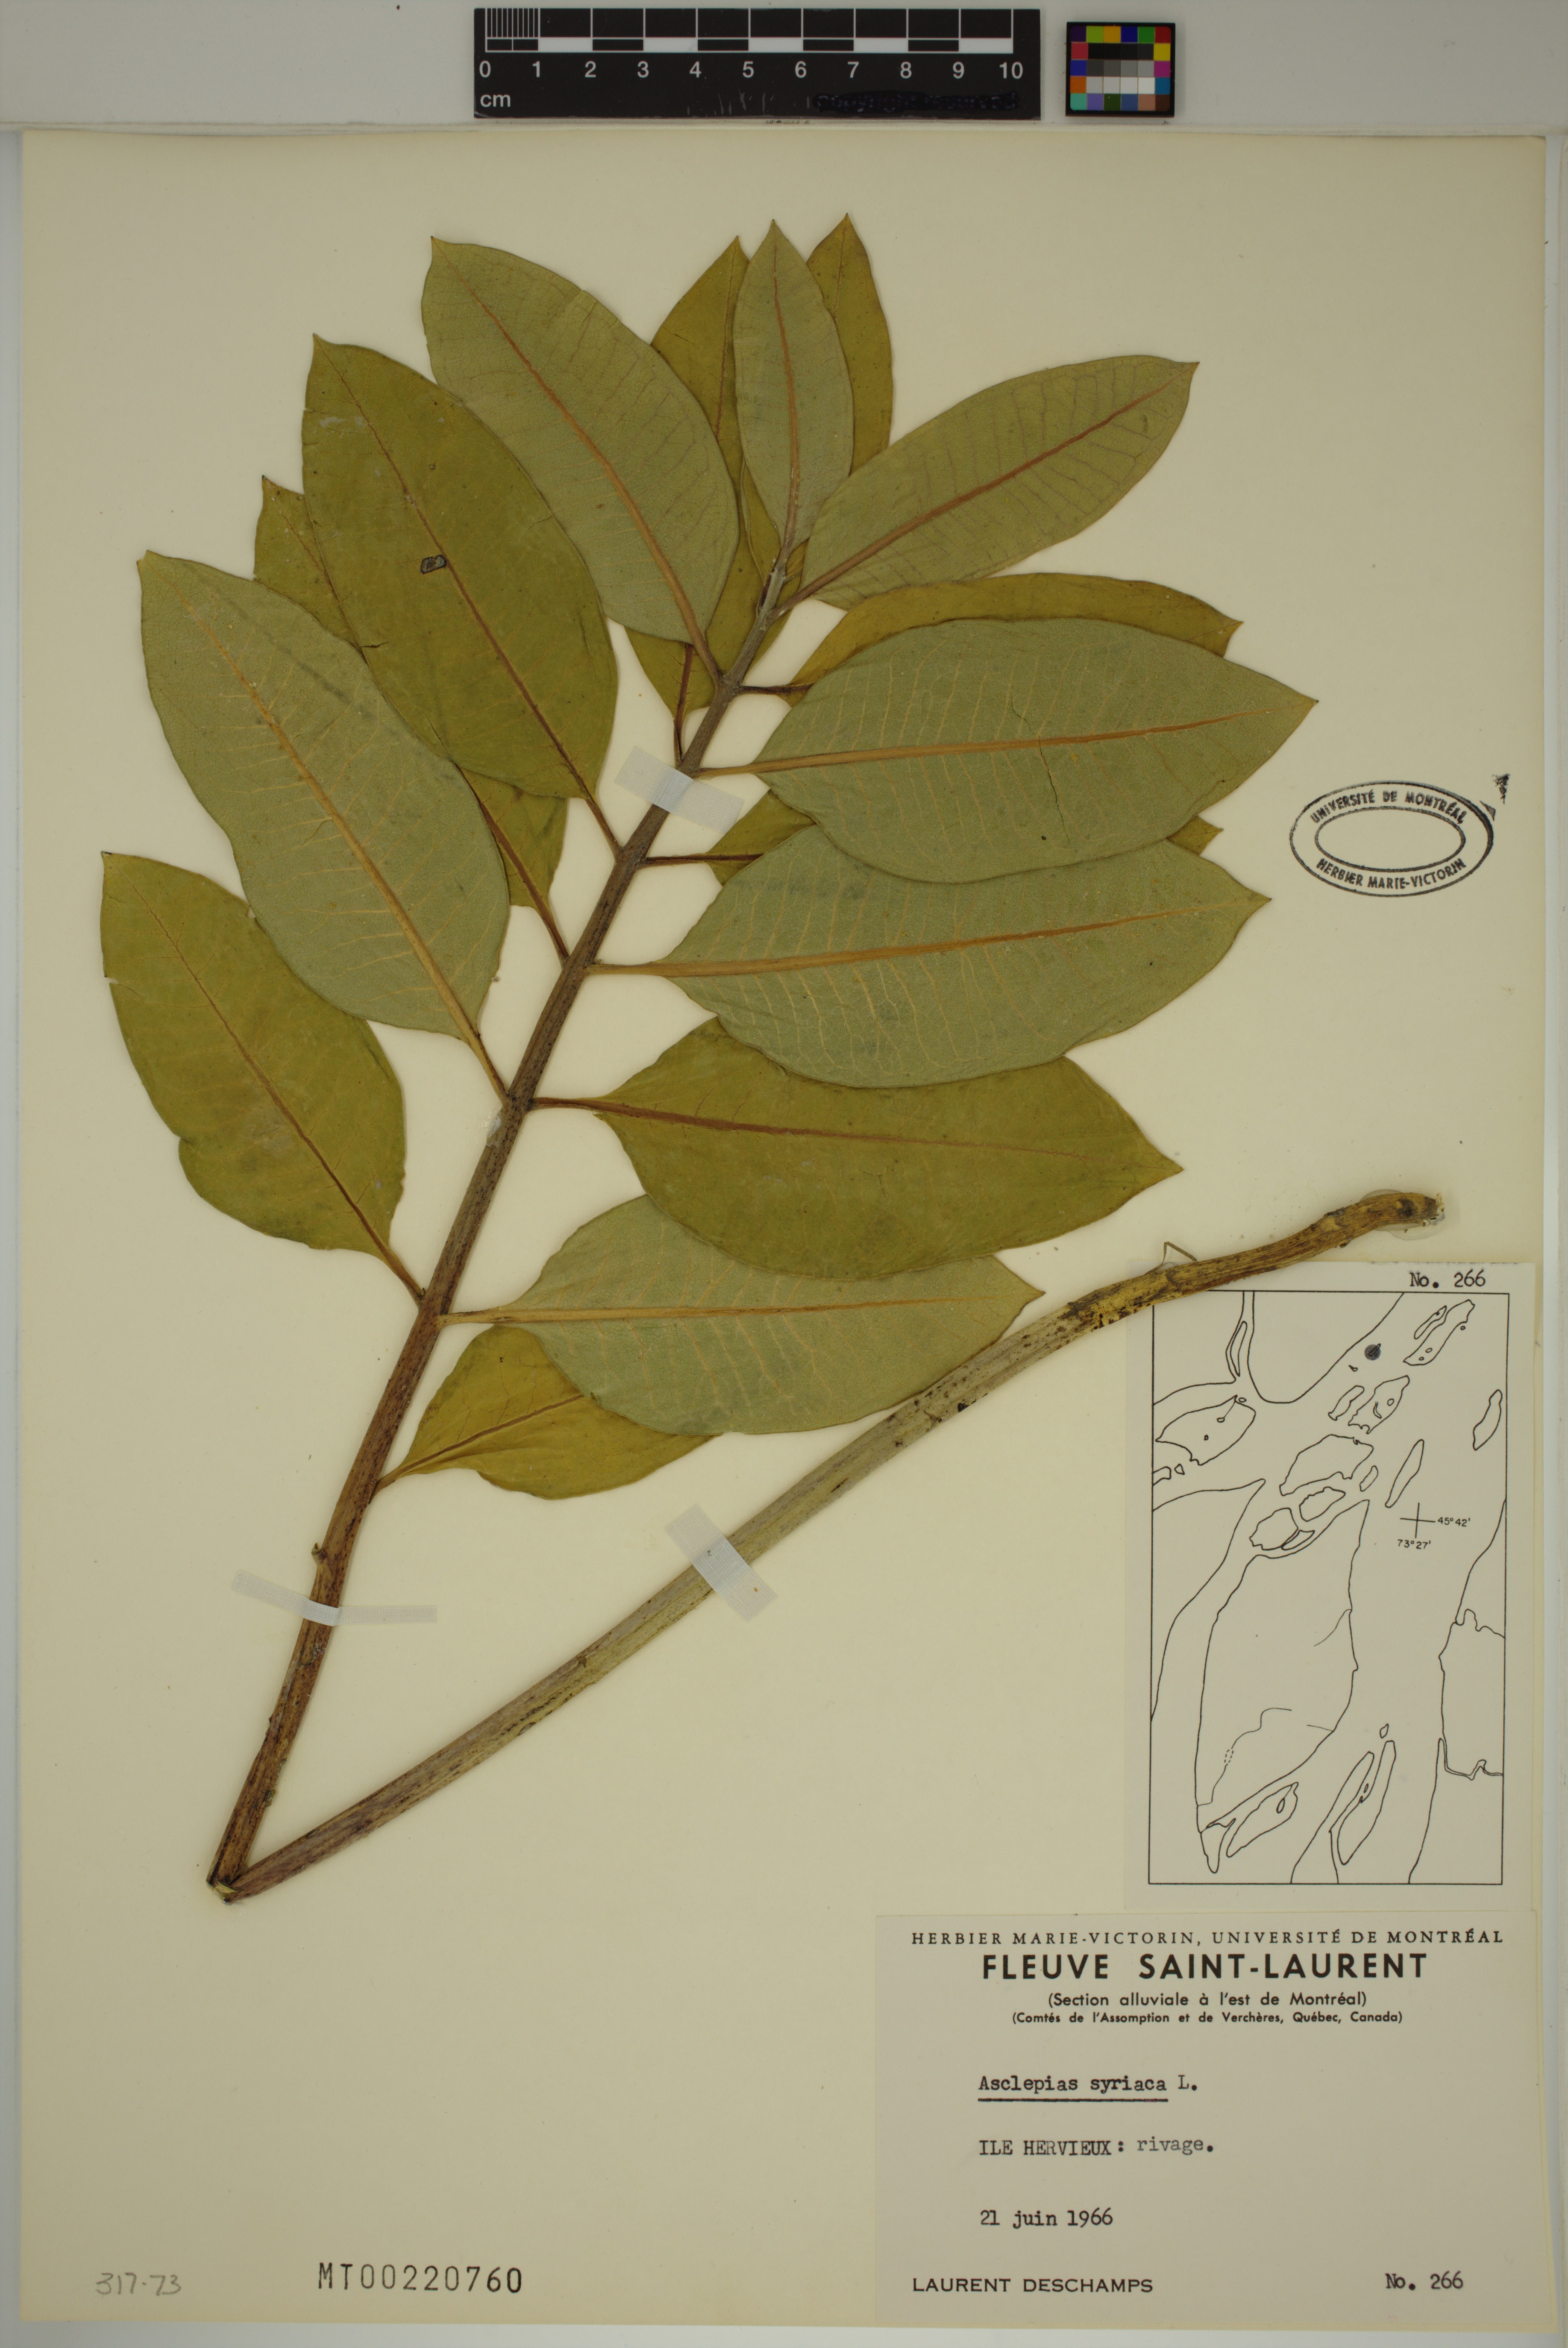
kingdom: Plantae
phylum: Tracheophyta
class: Magnoliopsida
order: Gentianales
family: Apocynaceae
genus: Asclepias
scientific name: Asclepias syriaca
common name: Common milkweed
